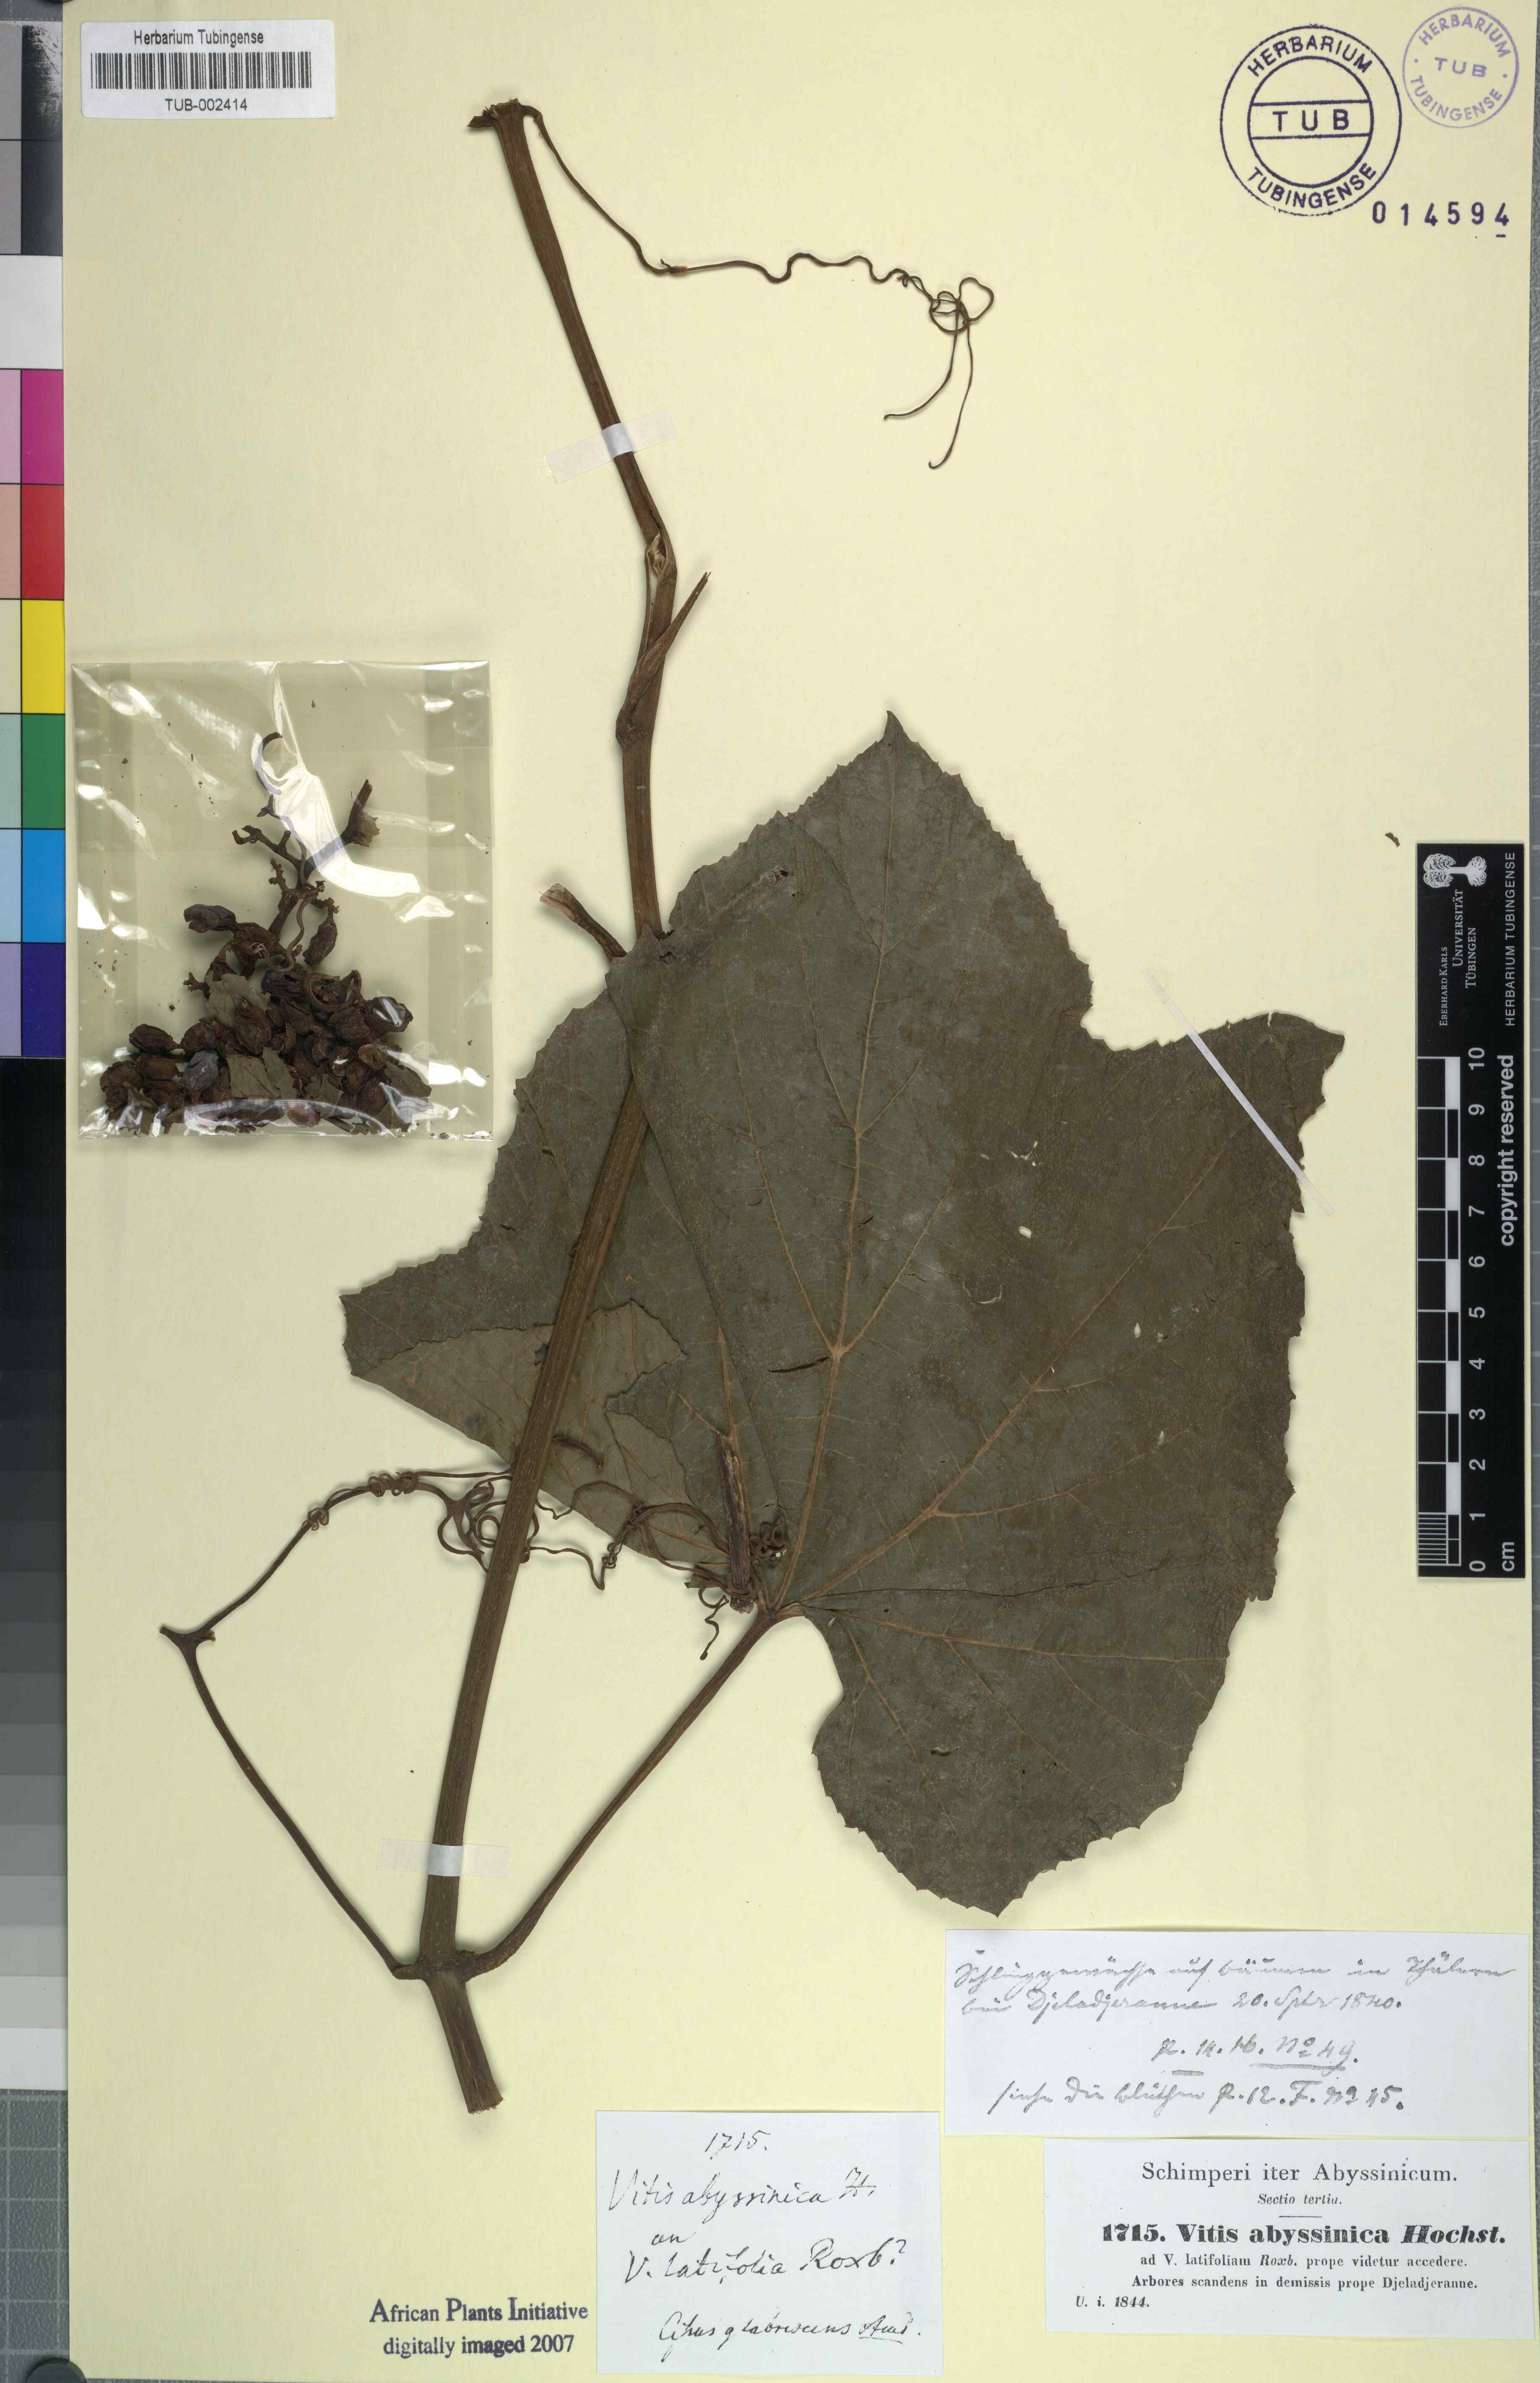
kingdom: Plantae
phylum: Tracheophyta
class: Magnoliopsida
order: Vitales
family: Vitaceae
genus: Ampelocissus
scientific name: Ampelocissus abyssinica
